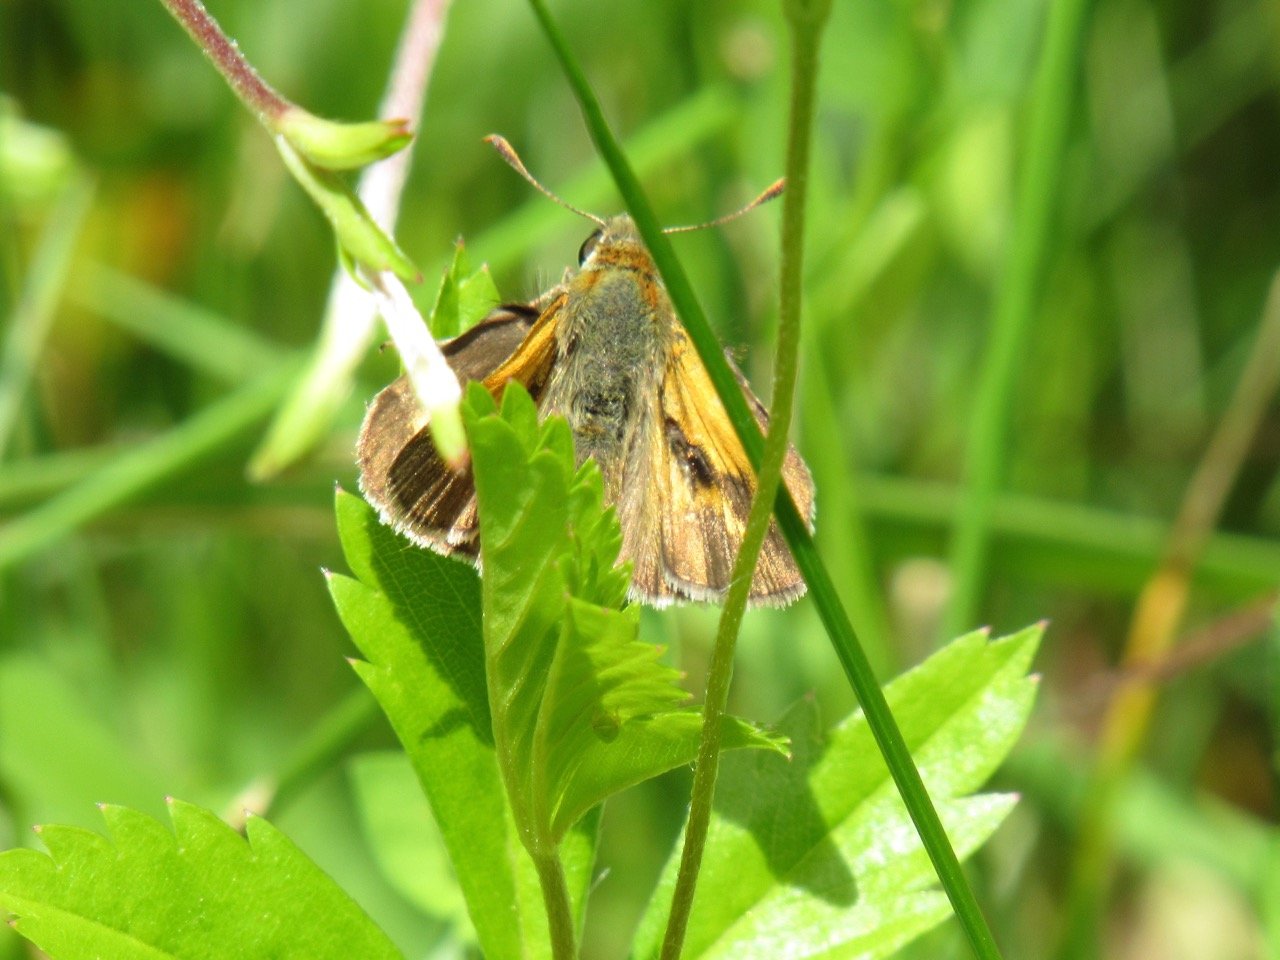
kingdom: Animalia
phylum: Arthropoda
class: Insecta
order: Lepidoptera
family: Hesperiidae
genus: Polites
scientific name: Polites
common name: Long Dash Skipper
